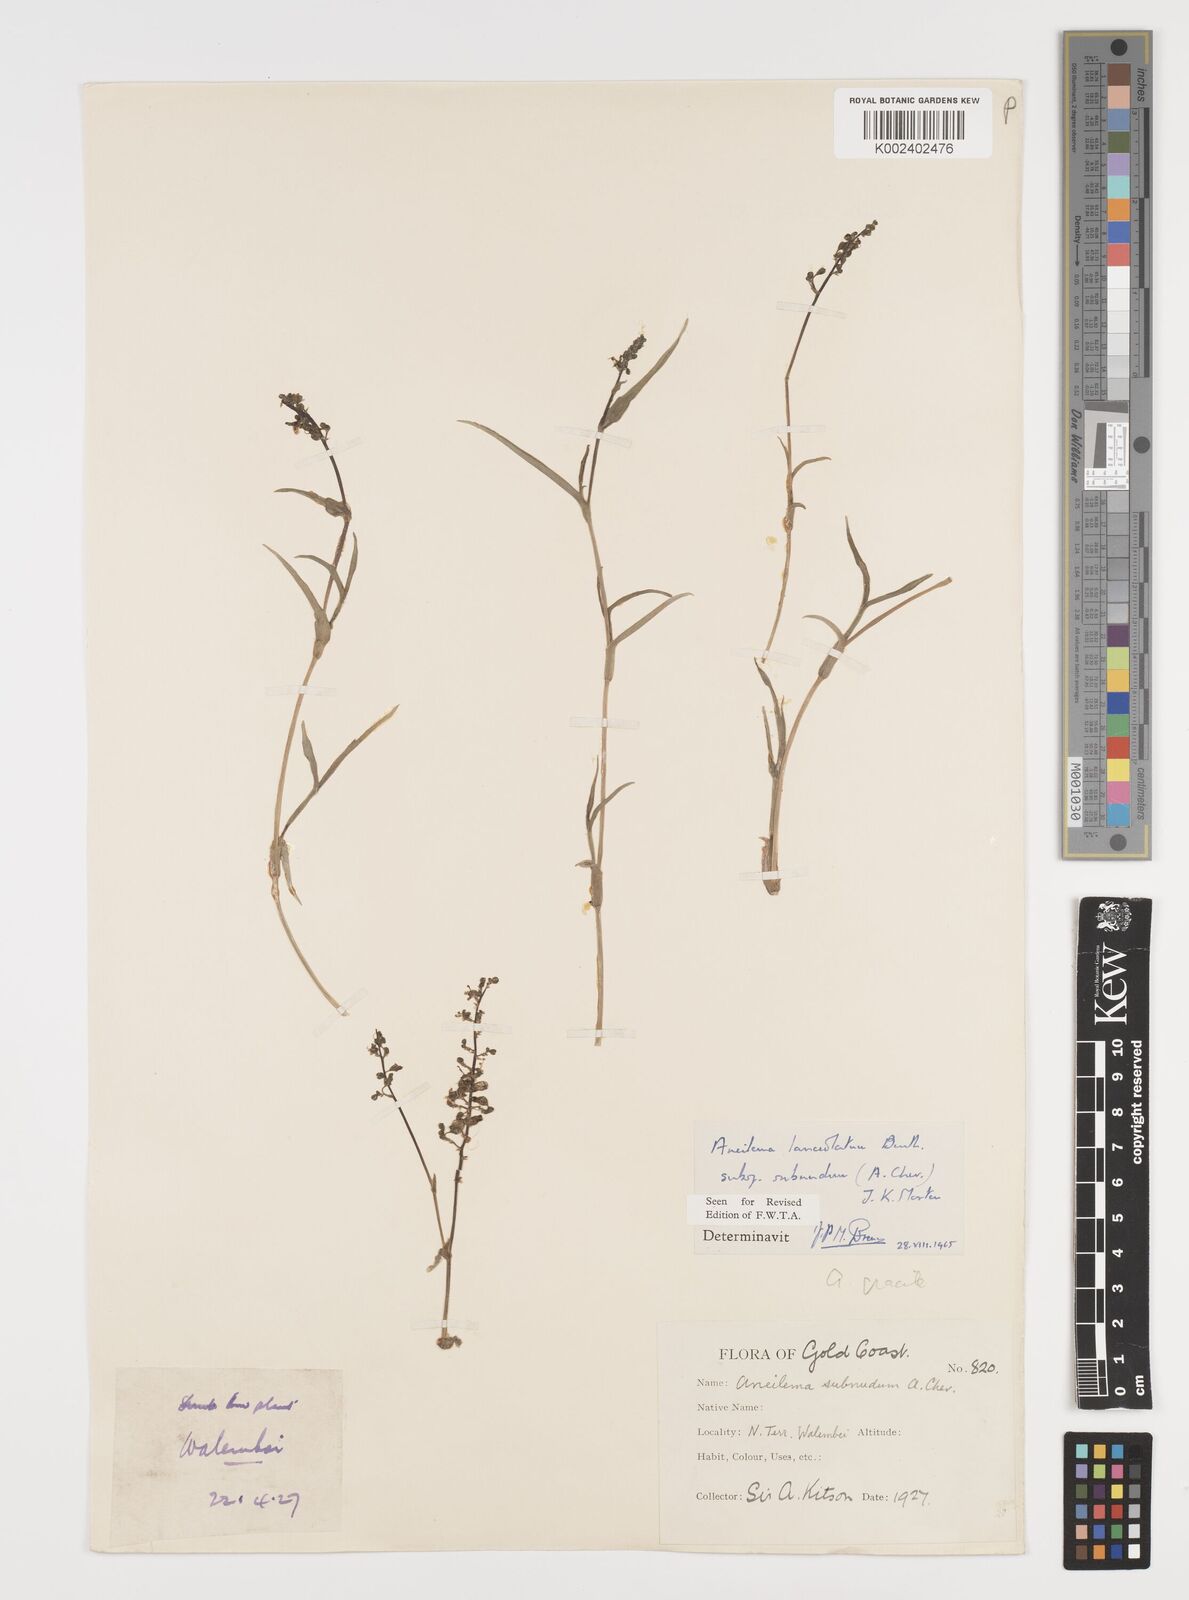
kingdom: Plantae
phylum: Tracheophyta
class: Liliopsida
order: Commelinales
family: Commelinaceae
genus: Aneilema
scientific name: Aneilema lanceolatum
